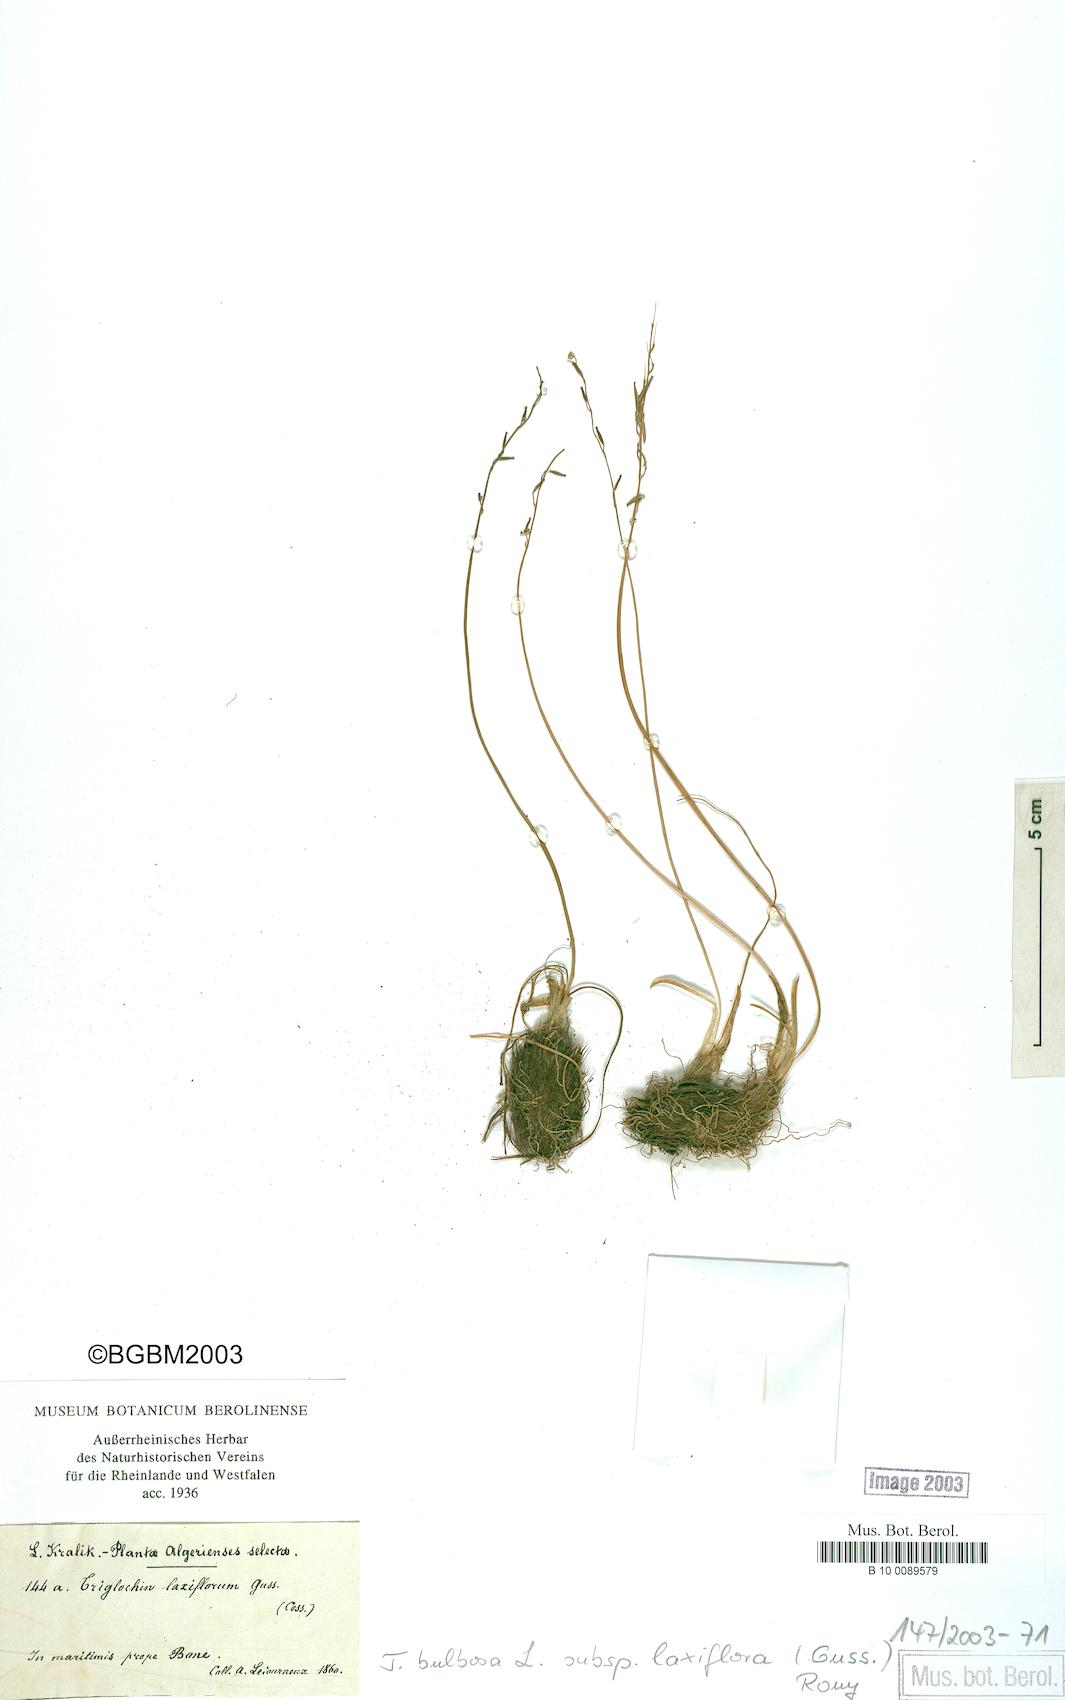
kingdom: Plantae
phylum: Tracheophyta
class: Liliopsida
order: Alismatales
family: Juncaginaceae
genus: Triglochin
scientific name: Triglochin laxiflora
